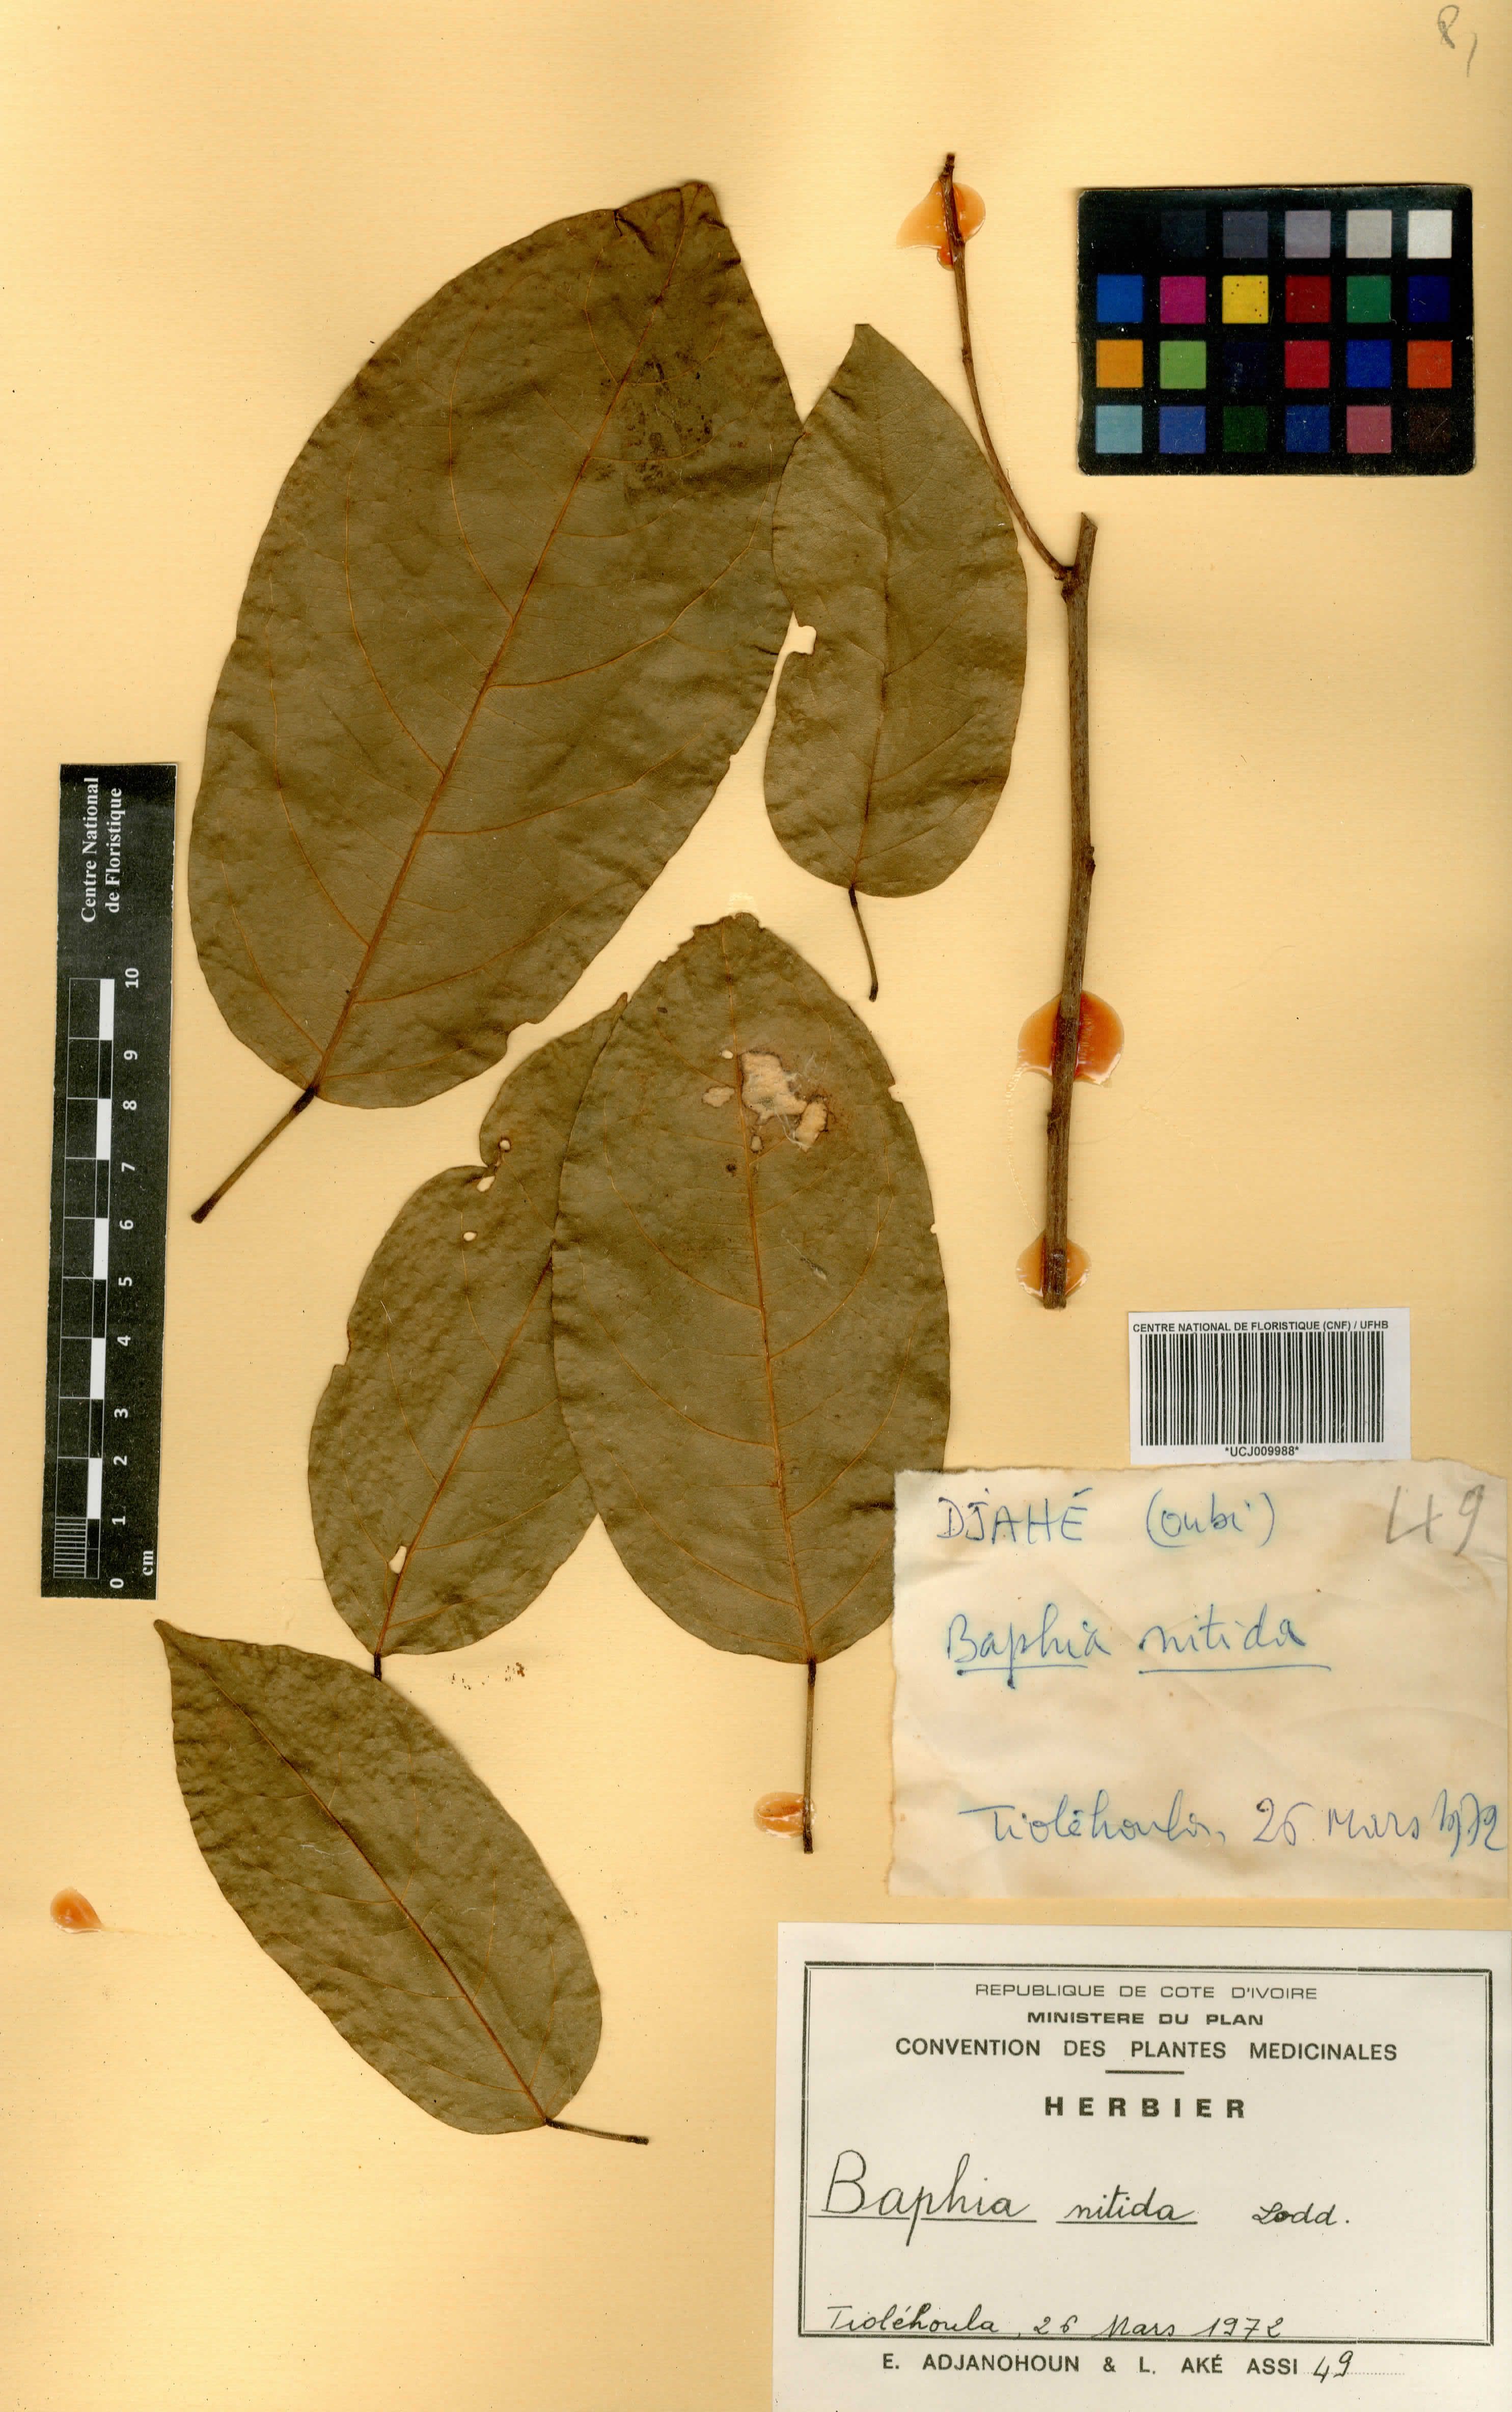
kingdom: Plantae
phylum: Tracheophyta
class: Magnoliopsida
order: Fabales
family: Fabaceae
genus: Baphia
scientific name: Baphia nitida
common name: Camwood
